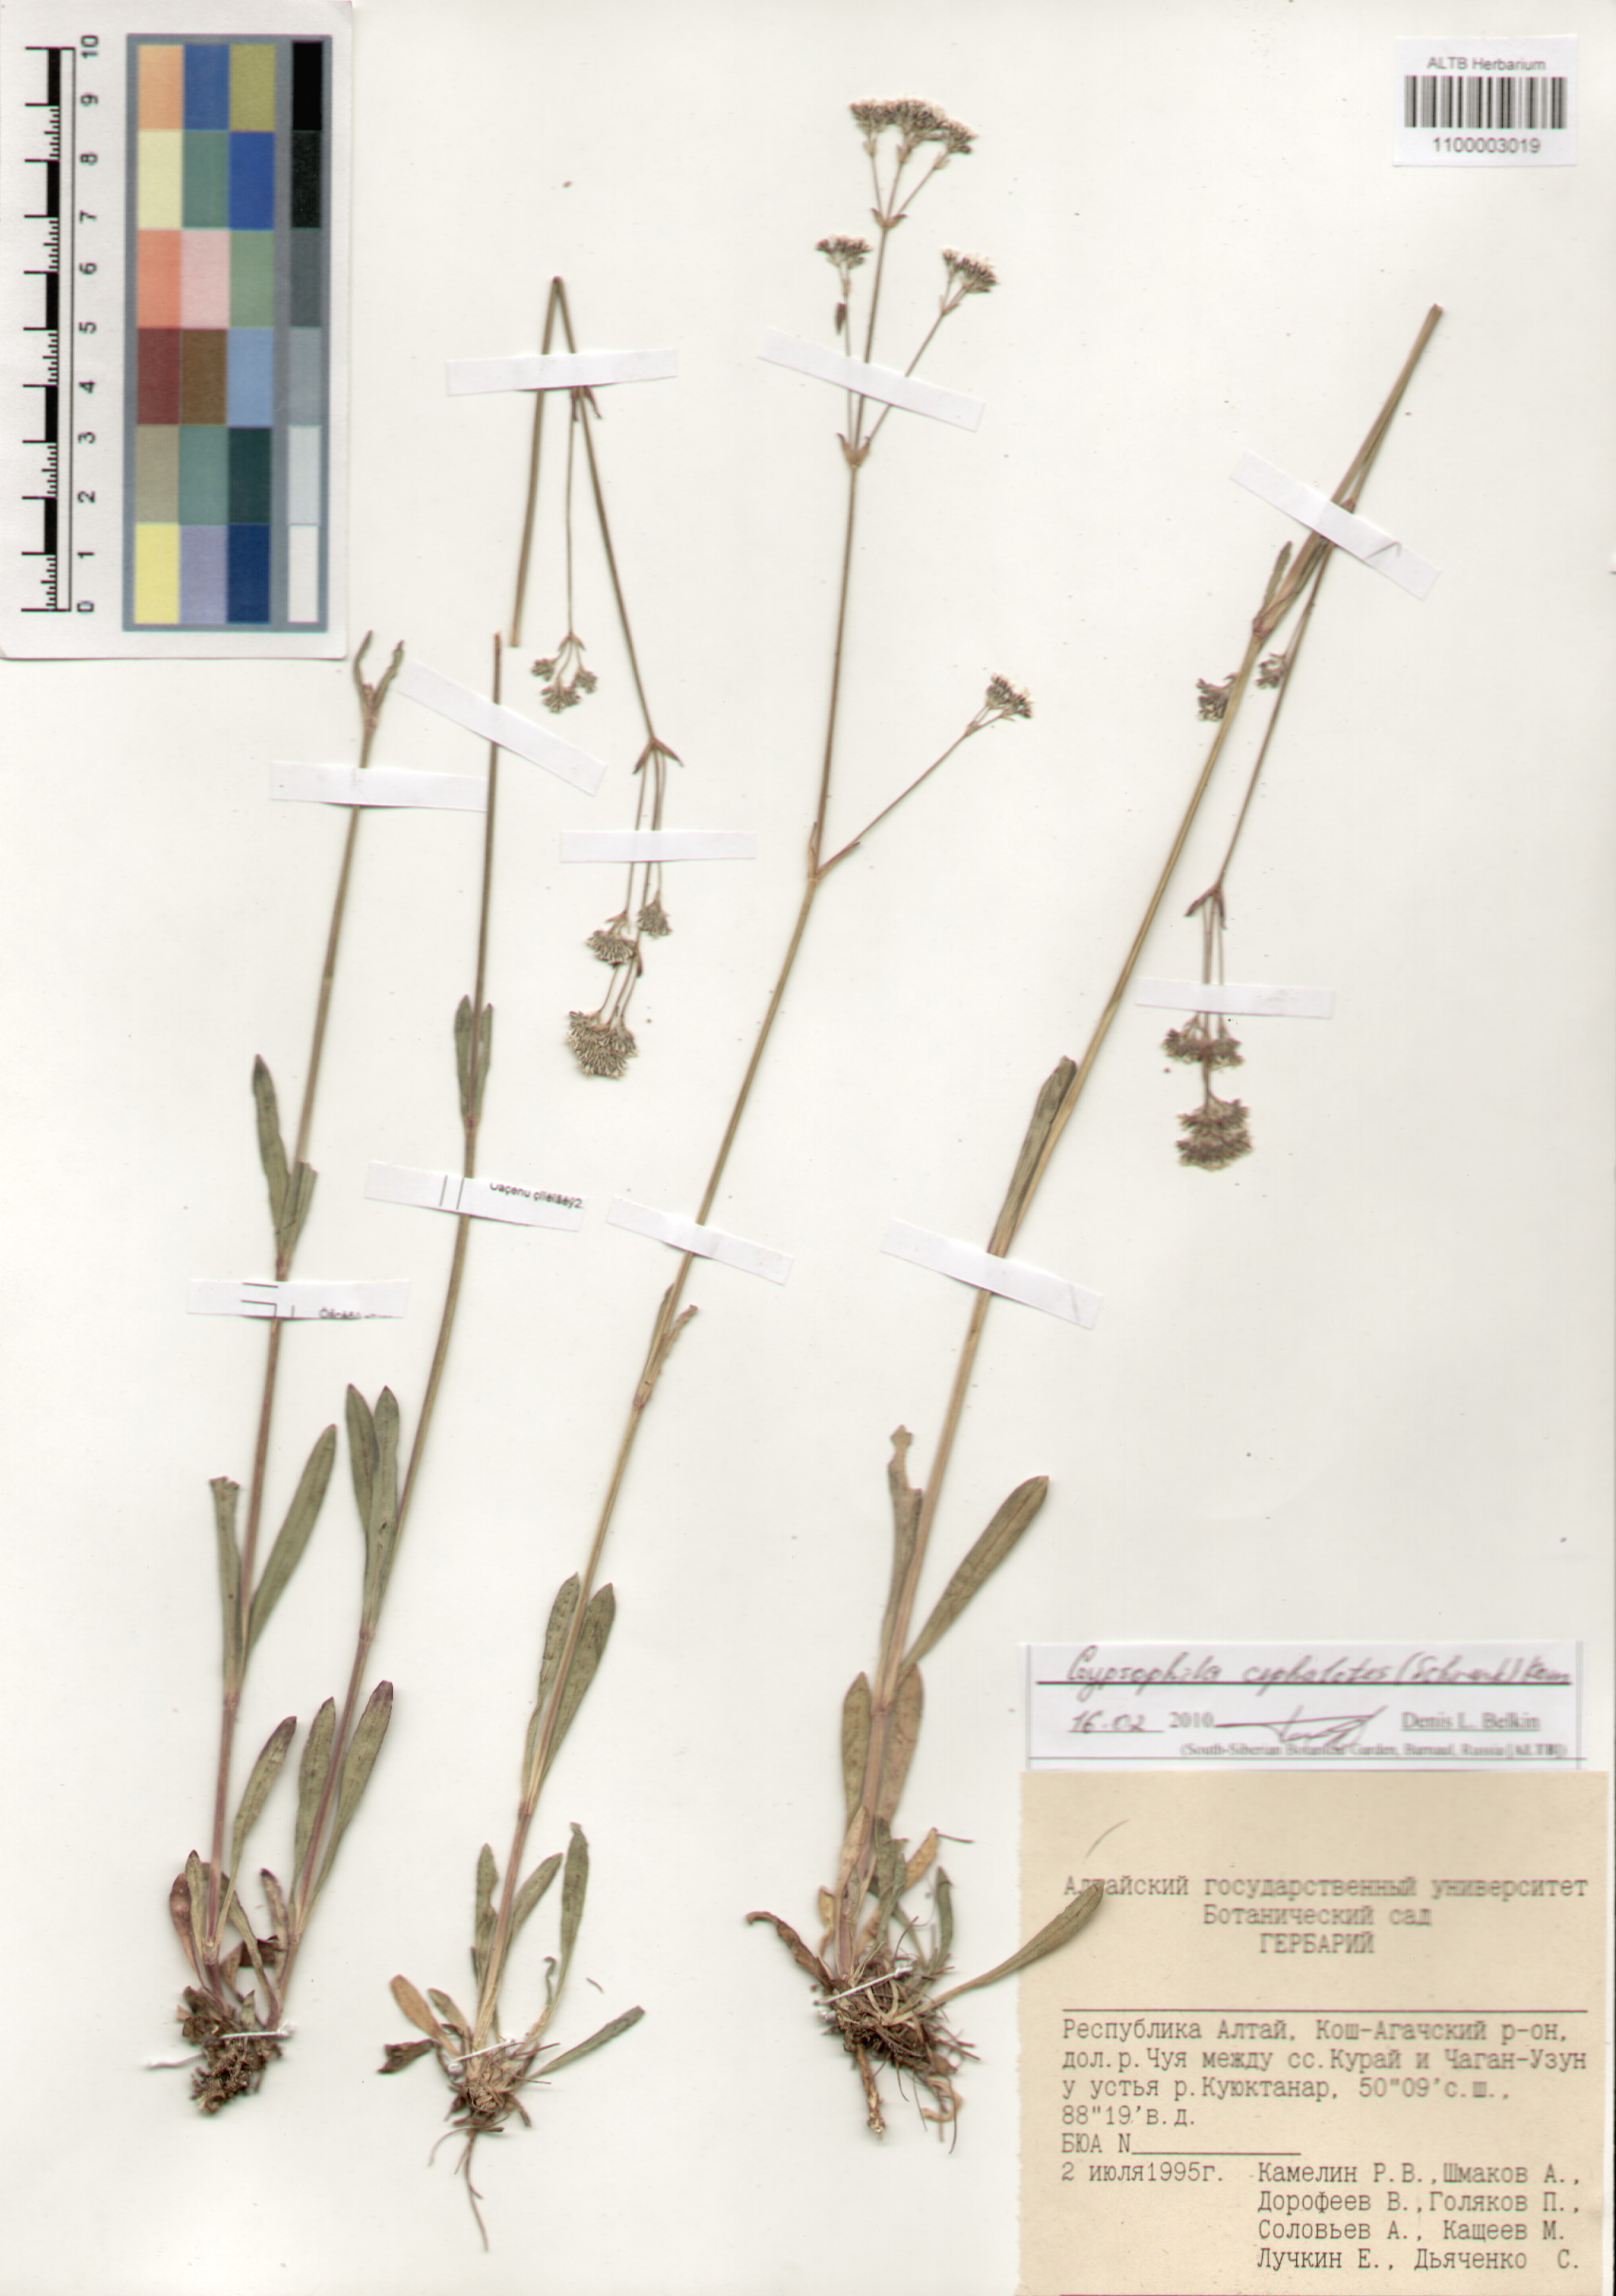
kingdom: Plantae
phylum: Tracheophyta
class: Magnoliopsida
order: Caryophyllales
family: Caryophyllaceae
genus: Gypsophila
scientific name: Gypsophila cephalotes
